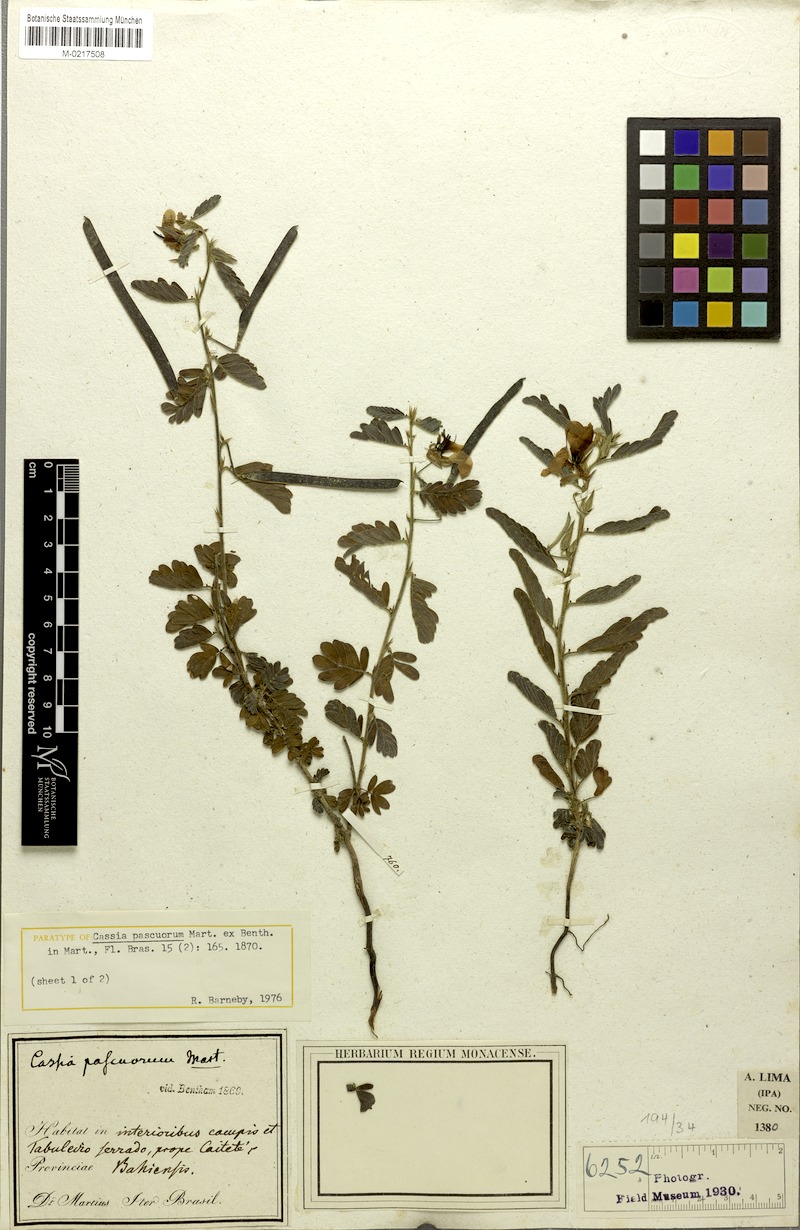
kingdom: Plantae
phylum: Tracheophyta
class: Magnoliopsida
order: Fabales
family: Fabaceae
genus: Chamaecrista
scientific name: Chamaecrista pascuorum
